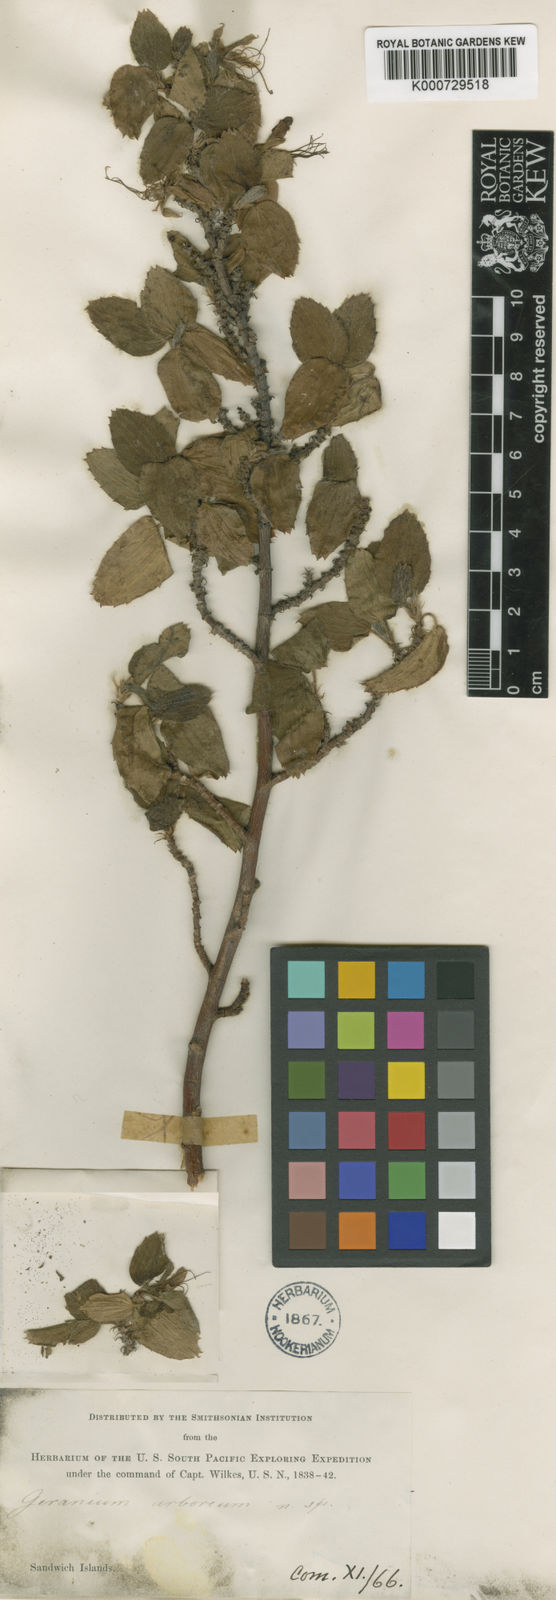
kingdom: Plantae
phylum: Tracheophyta
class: Magnoliopsida
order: Geraniales
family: Geraniaceae
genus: Geranium
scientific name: Geranium arboreum
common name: Hawaiian red-flower geranium
